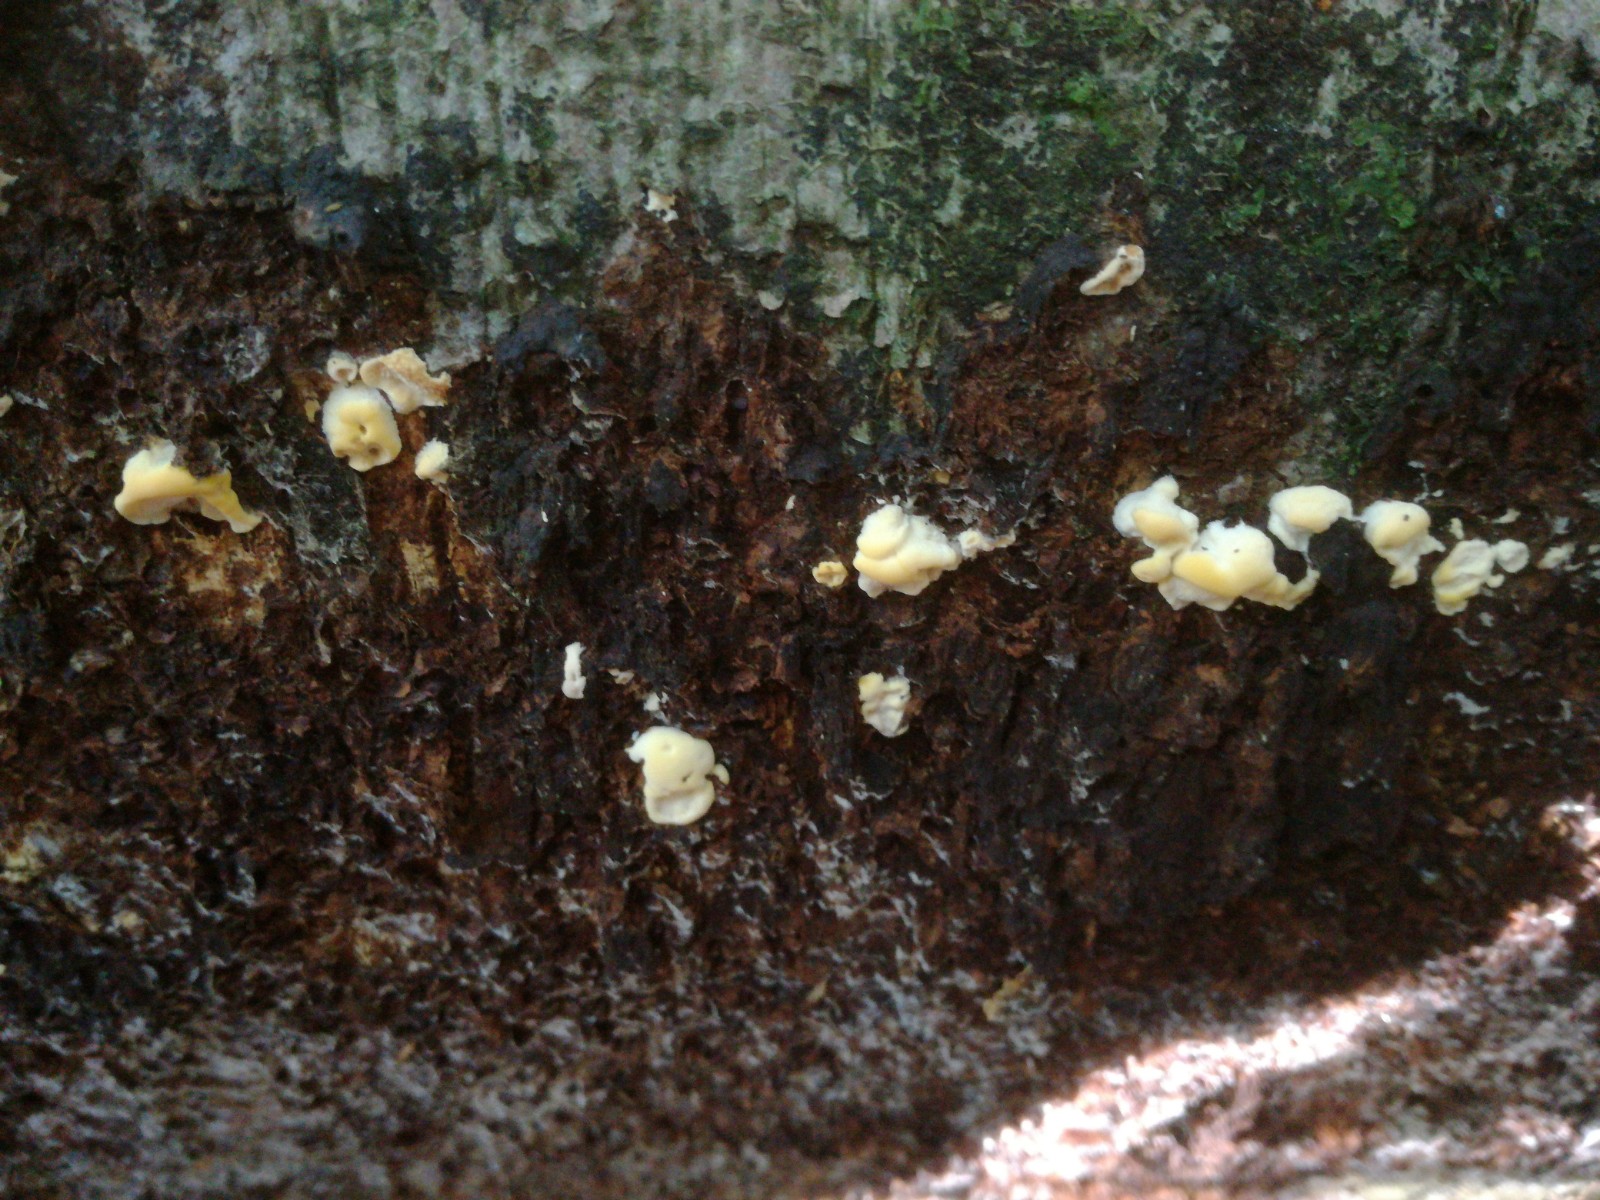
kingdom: Fungi
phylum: Basidiomycota
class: Agaricomycetes
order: Polyporales
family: Steccherinaceae
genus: Antrodiella
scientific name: Antrodiella serpula
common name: gulrandet elastikporesvamp
